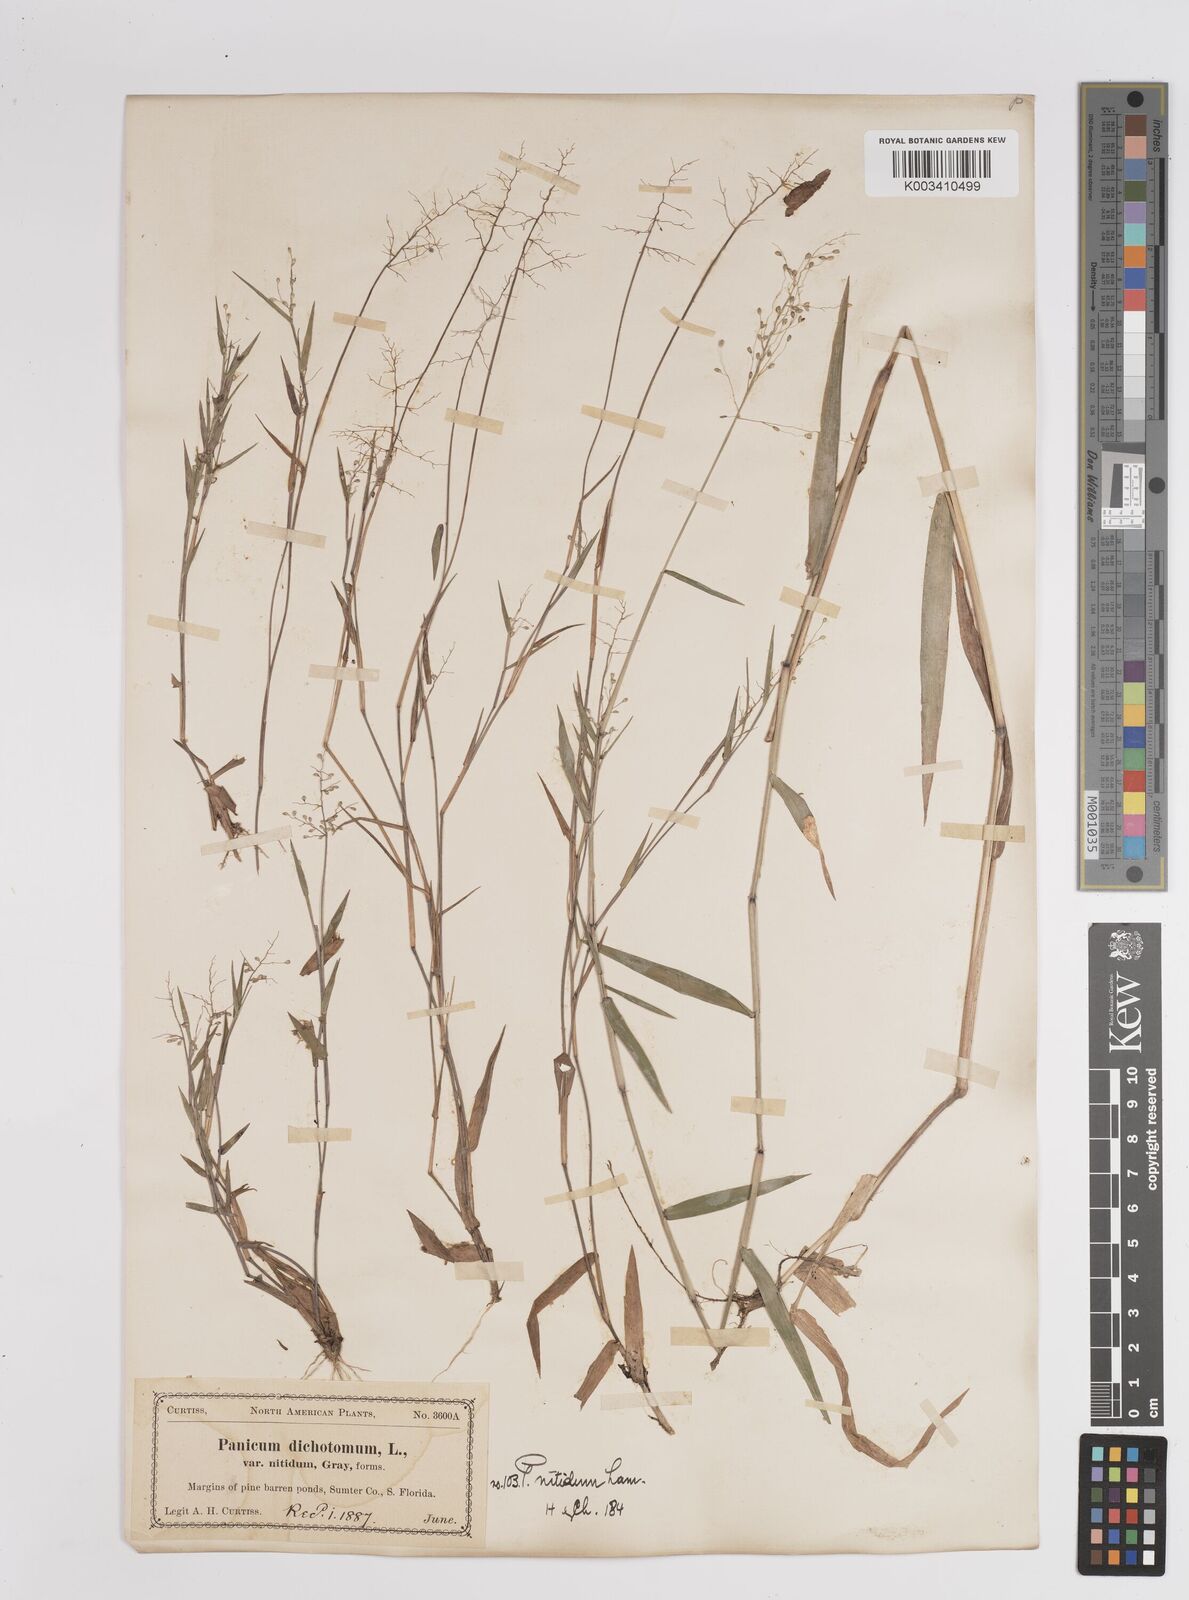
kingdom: Plantae
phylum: Tracheophyta
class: Liliopsida
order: Poales
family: Poaceae
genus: Dichanthelium
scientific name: Dichanthelium polyanthes
